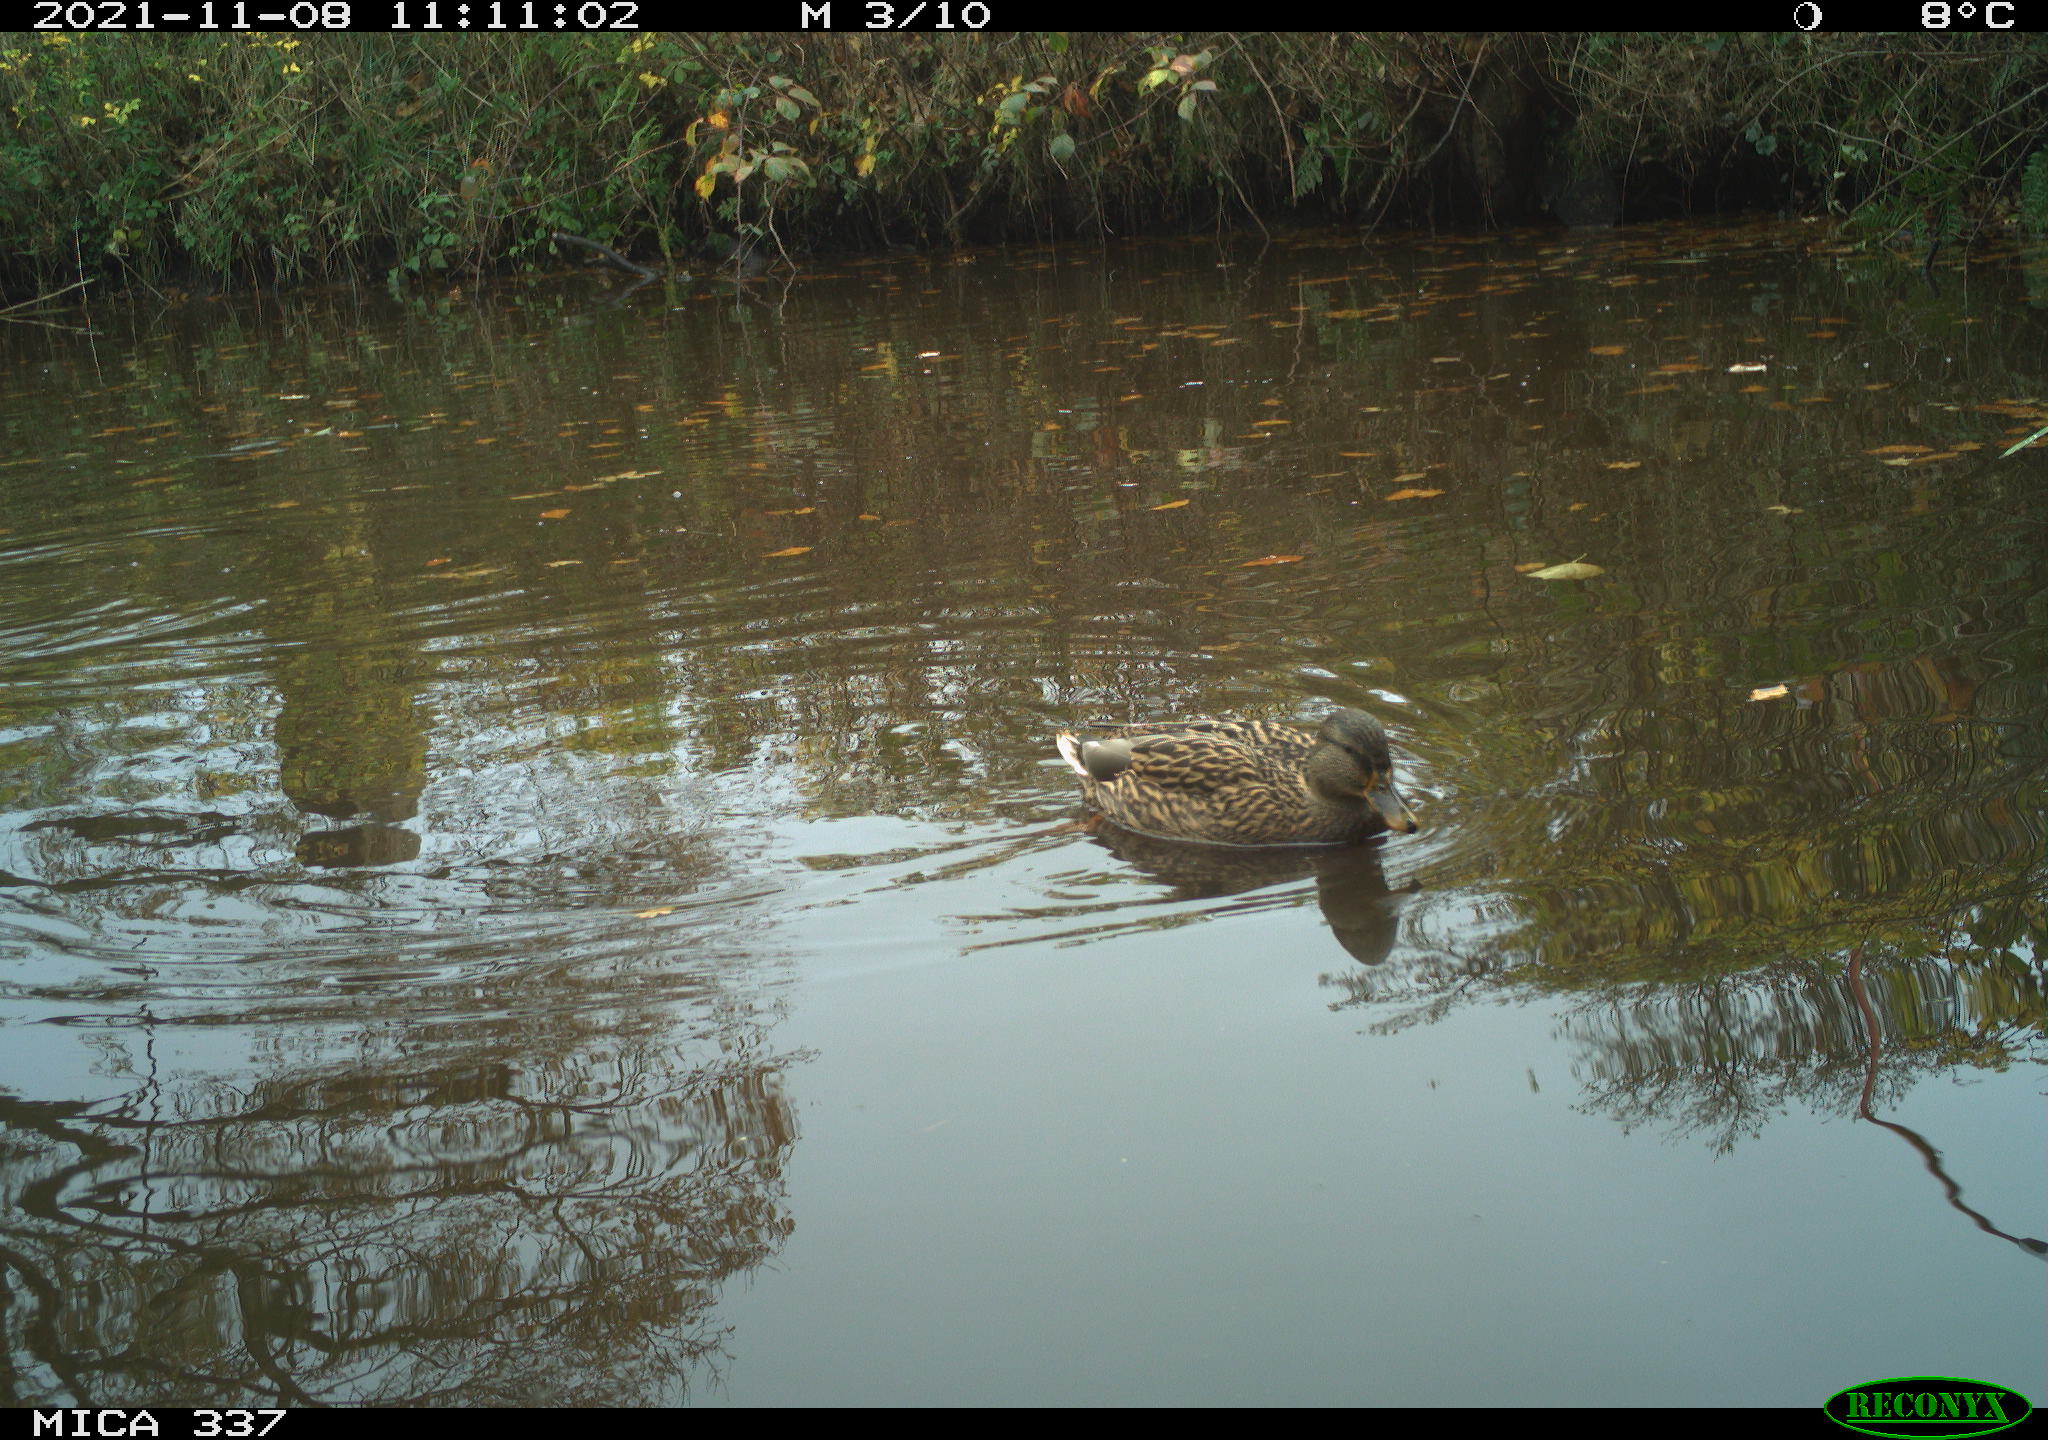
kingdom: Animalia
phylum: Chordata
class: Aves
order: Anseriformes
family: Anatidae
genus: Anas
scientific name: Anas platyrhynchos
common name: Mallard
